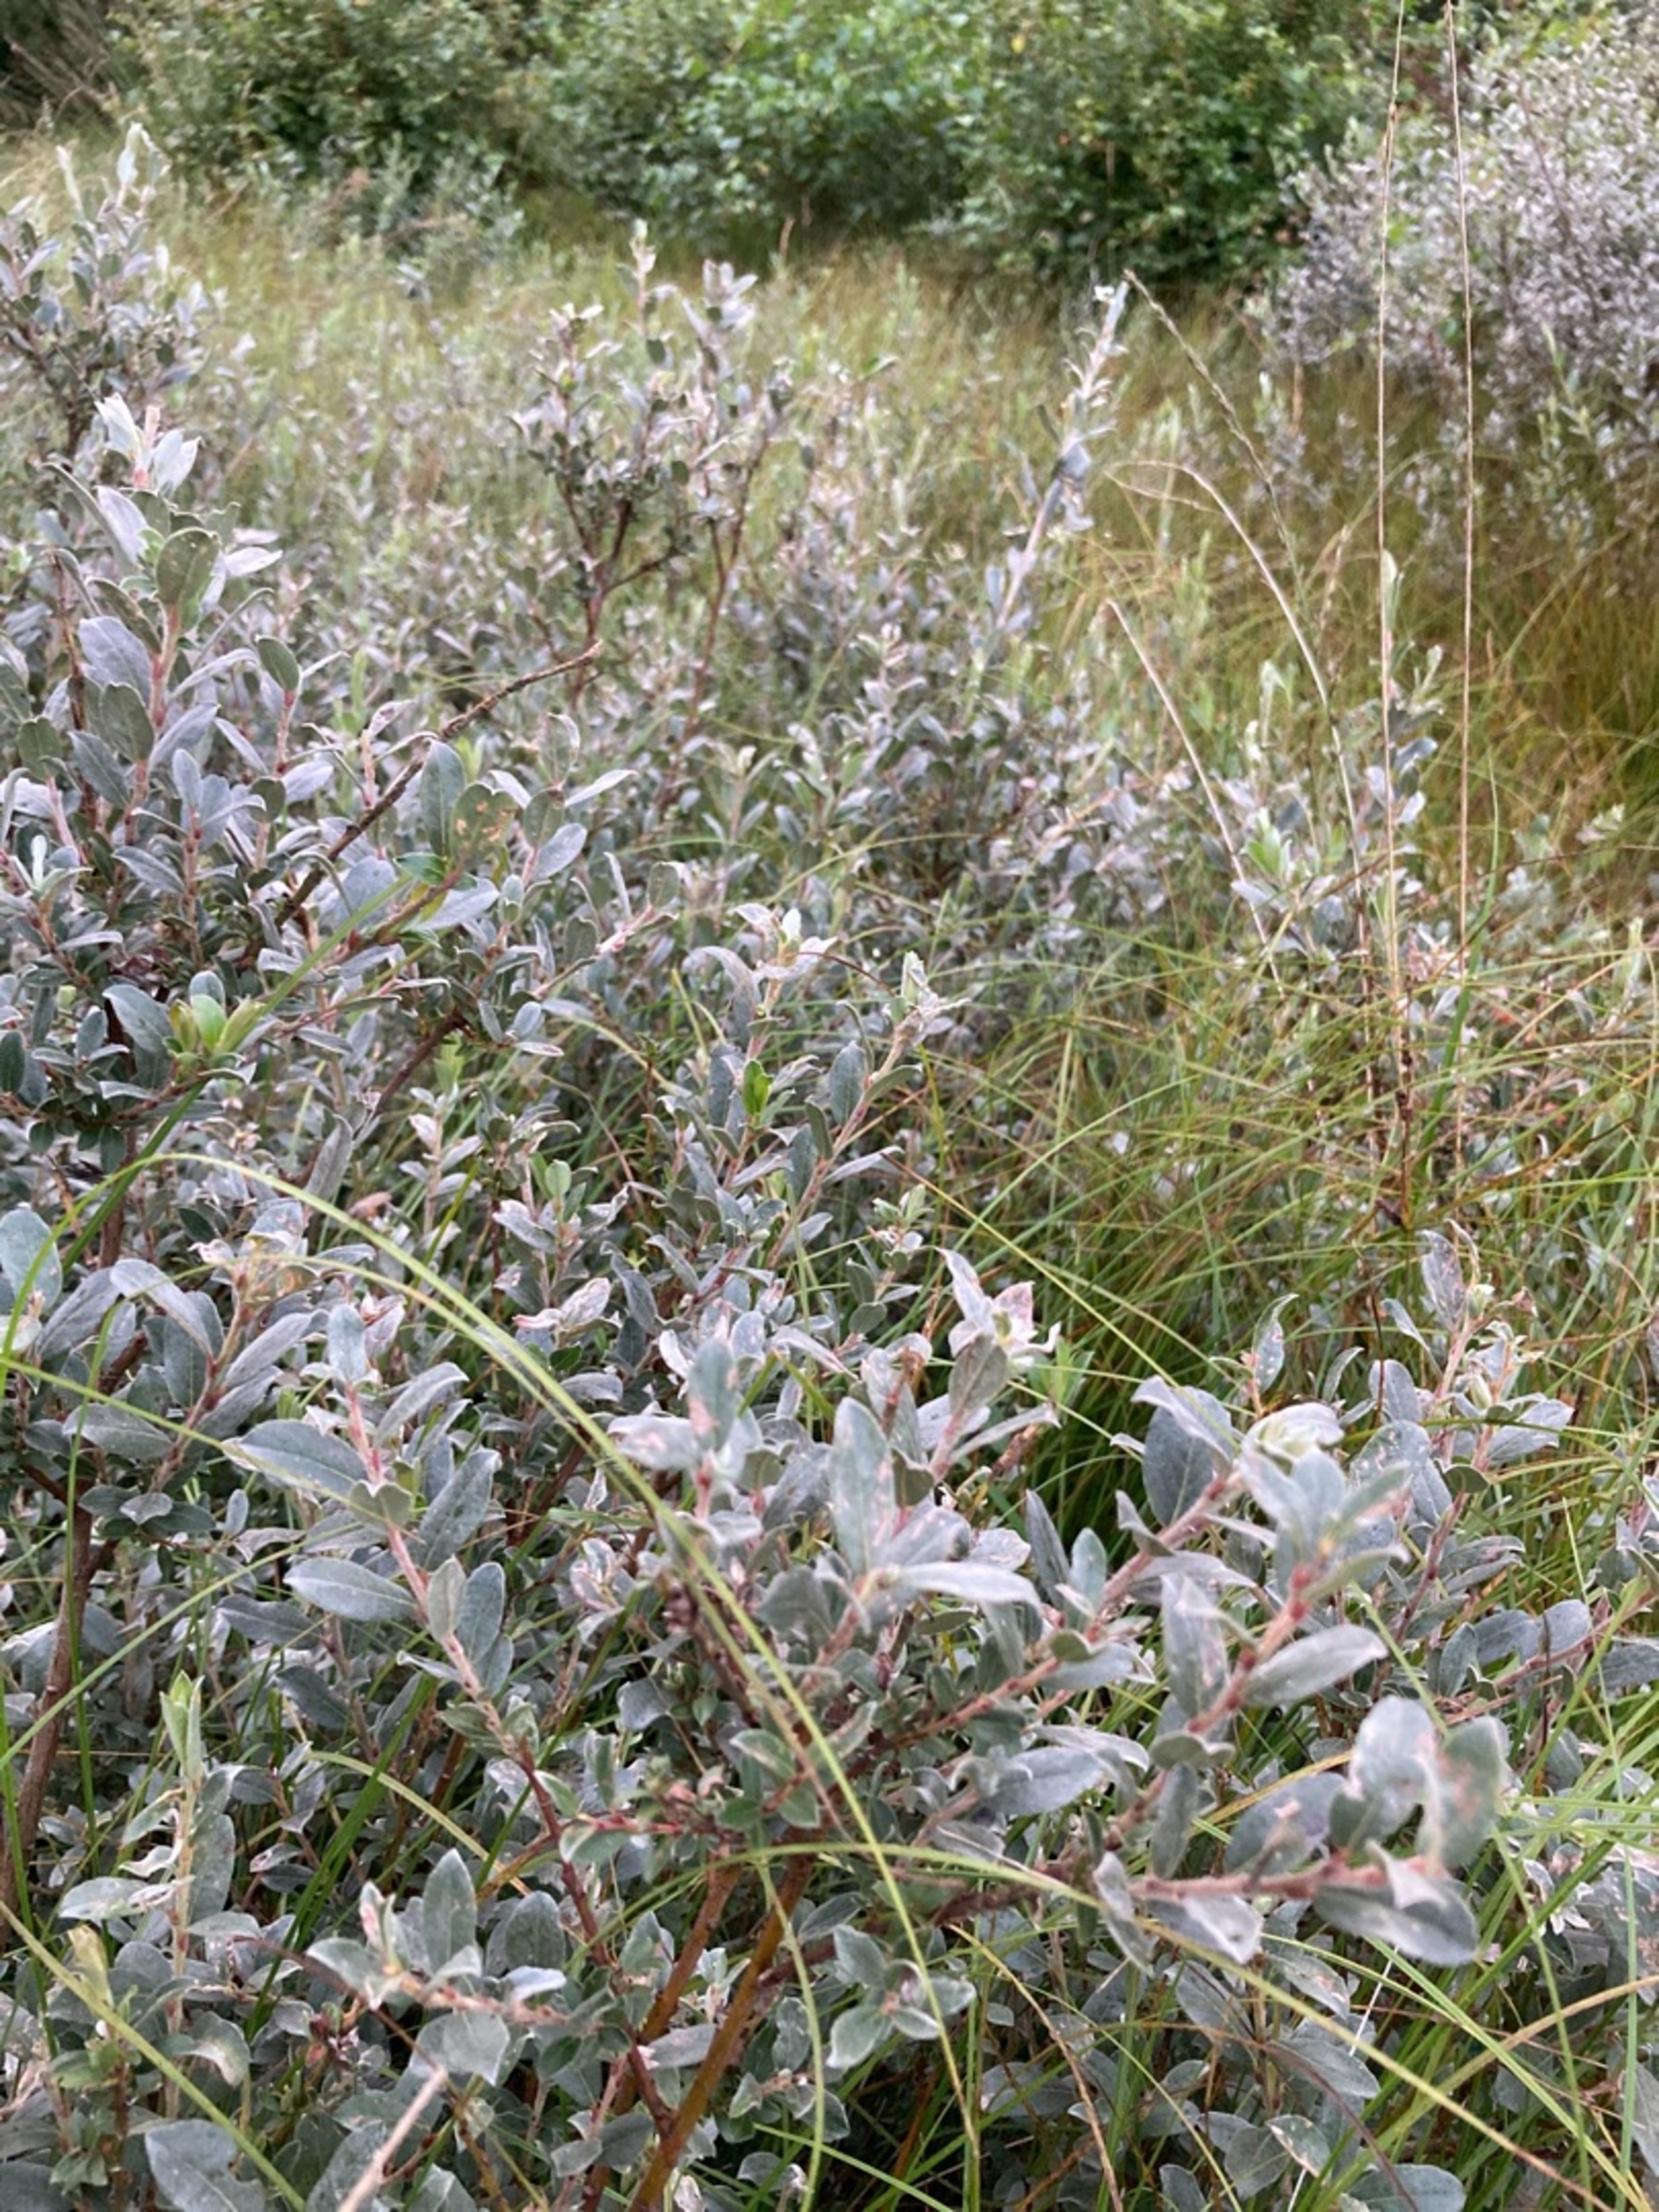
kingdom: Plantae
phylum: Tracheophyta
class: Magnoliopsida
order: Malpighiales
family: Salicaceae
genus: Salix
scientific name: Salix repens
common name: Gråris
